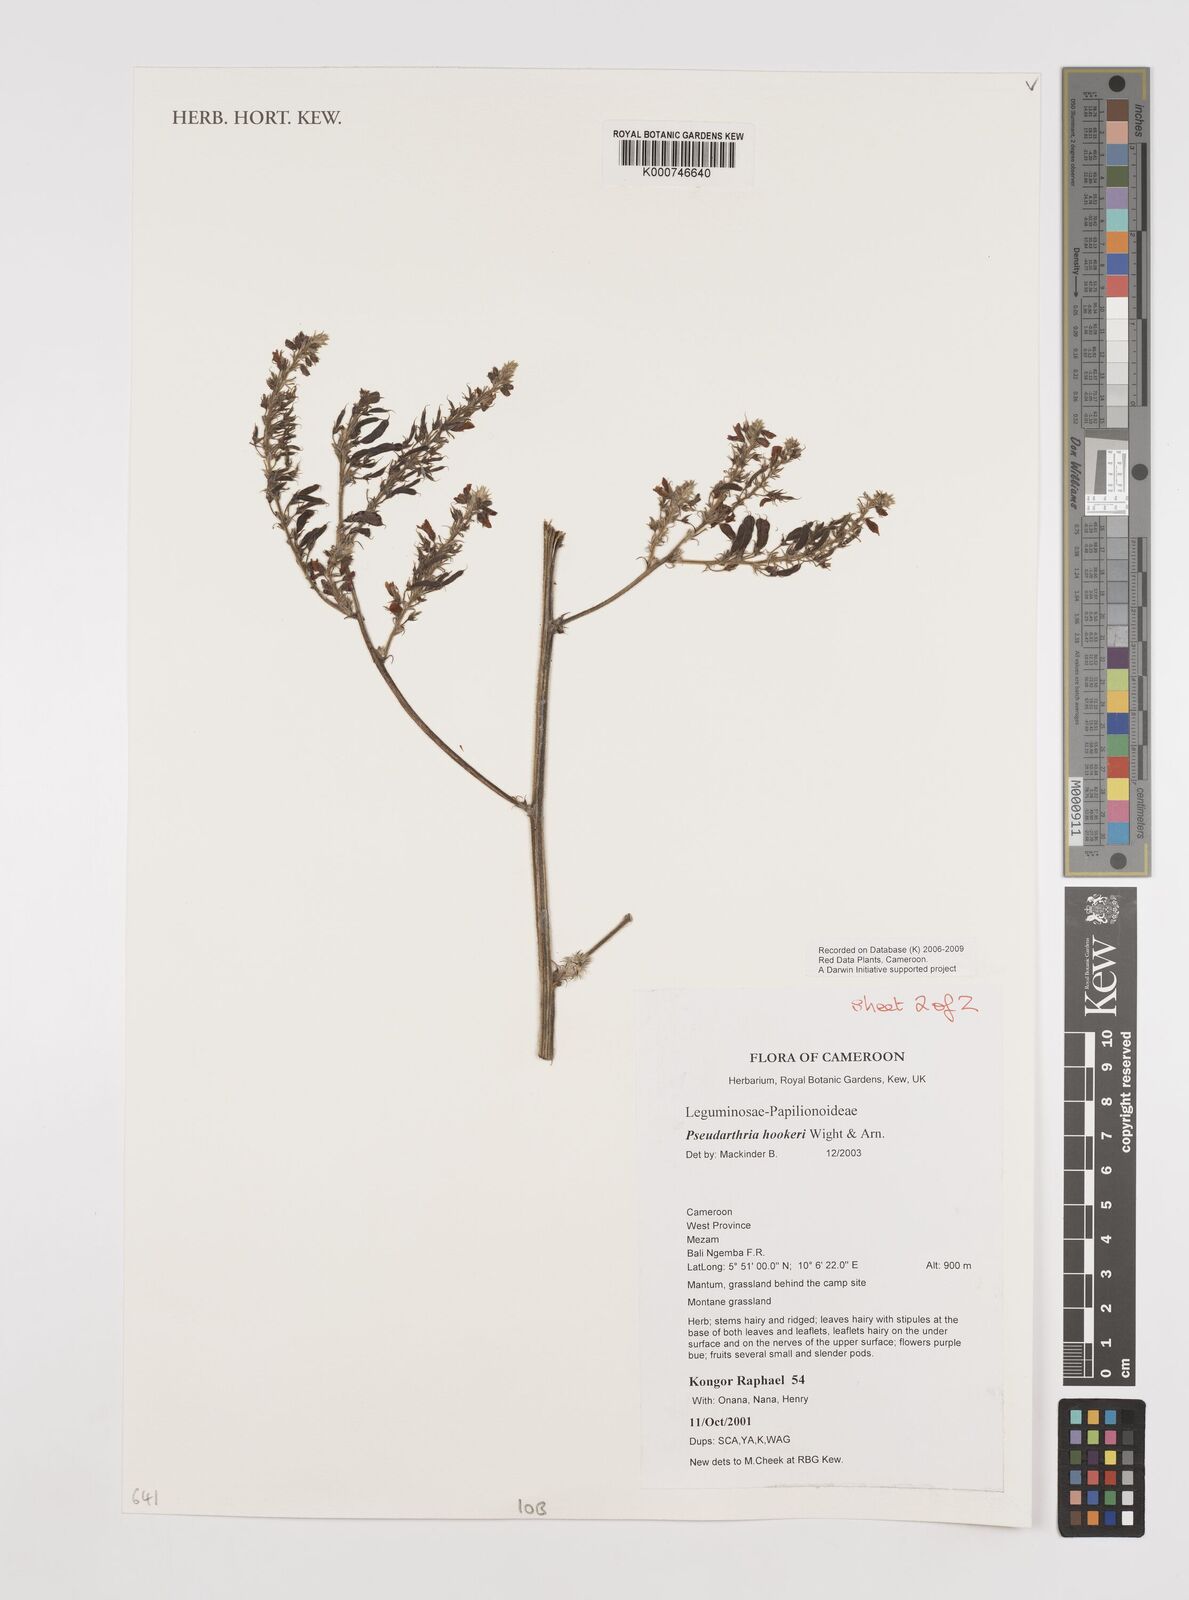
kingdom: Plantae
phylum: Tracheophyta
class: Magnoliopsida
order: Fabales
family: Fabaceae
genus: Pseudarthria
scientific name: Pseudarthria hookeri
